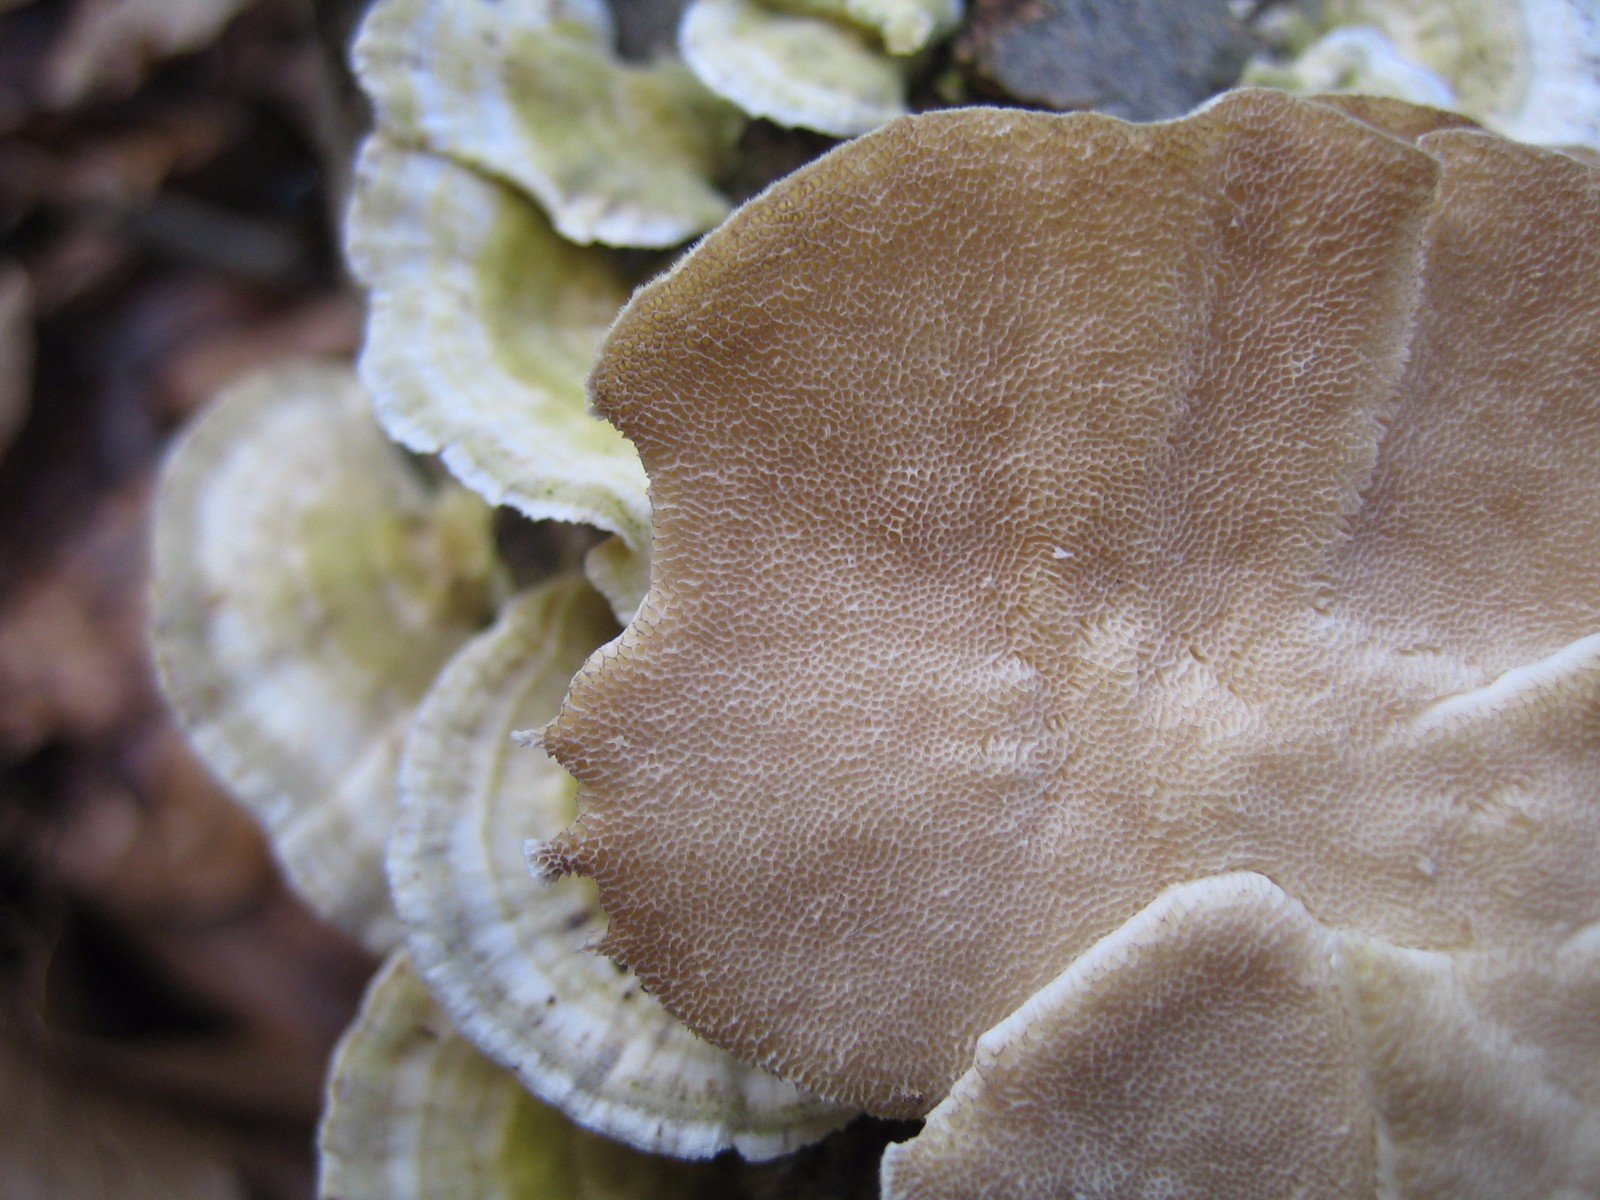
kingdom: Fungi
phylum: Basidiomycota
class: Agaricomycetes
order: Polyporales
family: Polyporaceae
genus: Trametes
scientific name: Trametes hirsuta
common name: håret læderporesvamp
